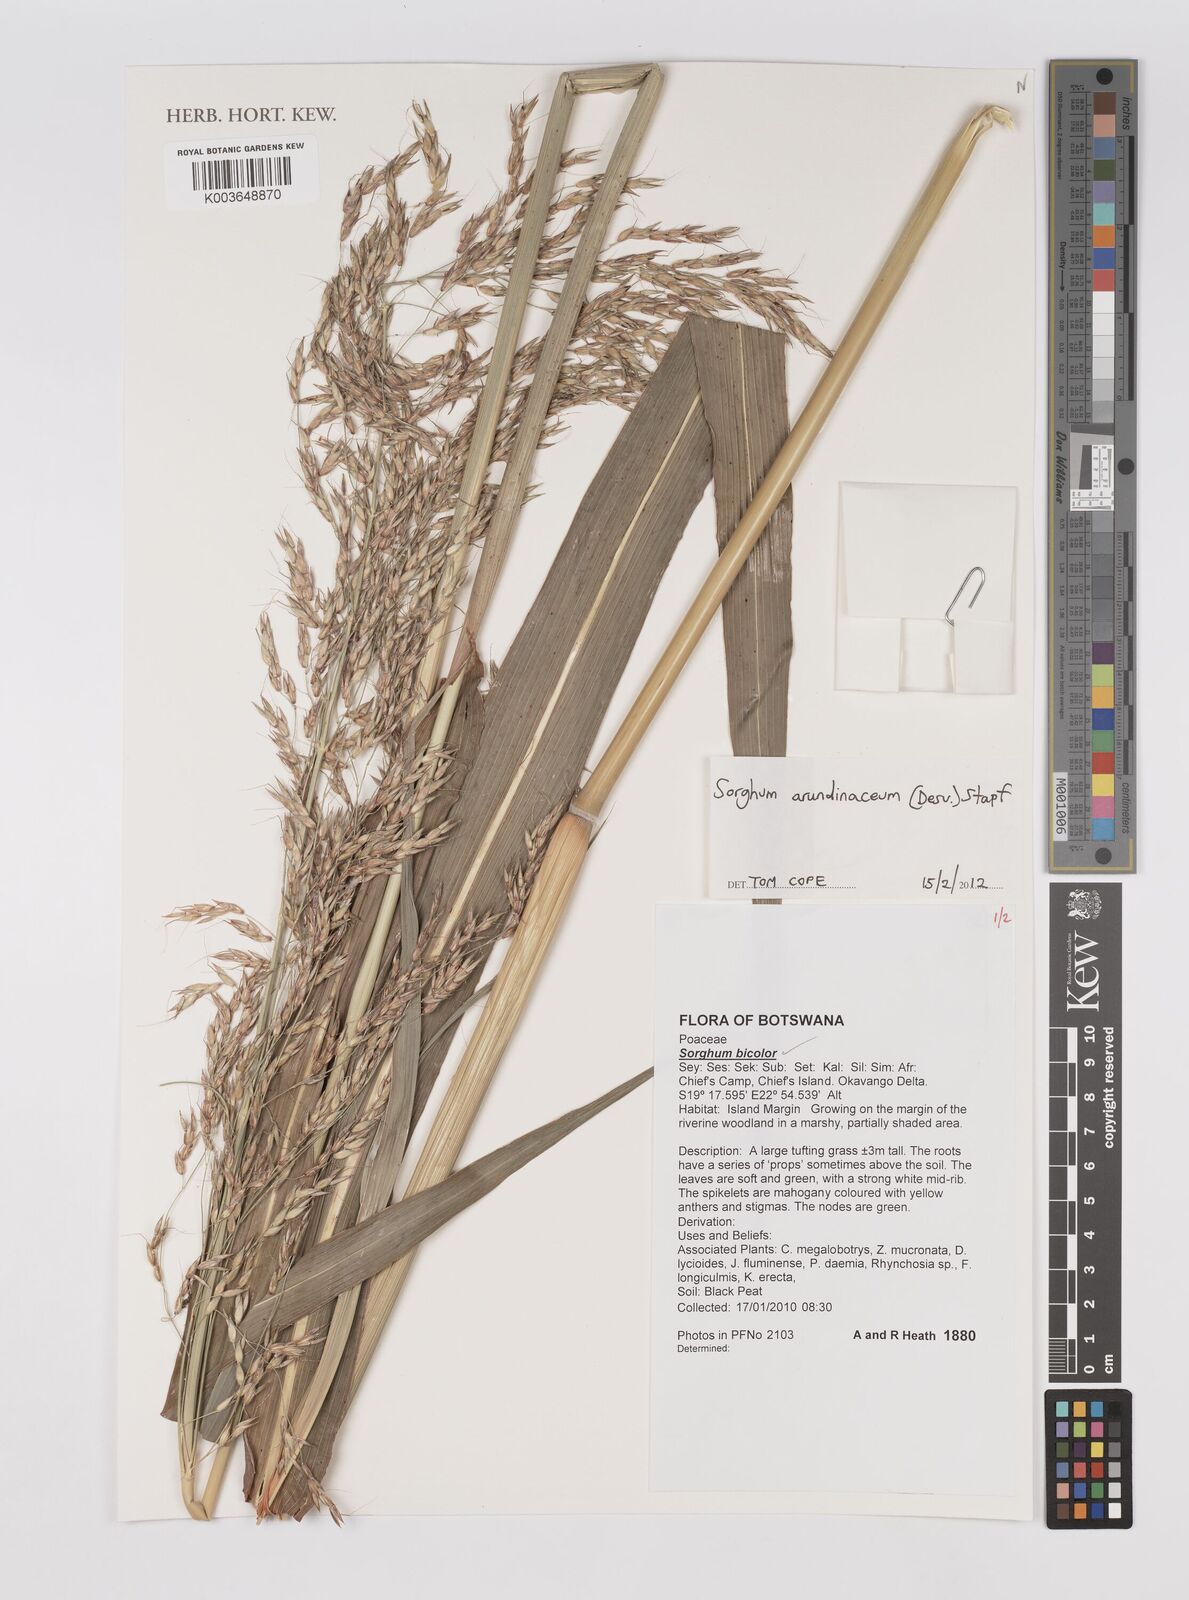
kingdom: Plantae
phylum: Tracheophyta
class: Liliopsida
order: Poales
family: Poaceae
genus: Sorghum
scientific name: Sorghum arundinaceum
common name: Sorghum
